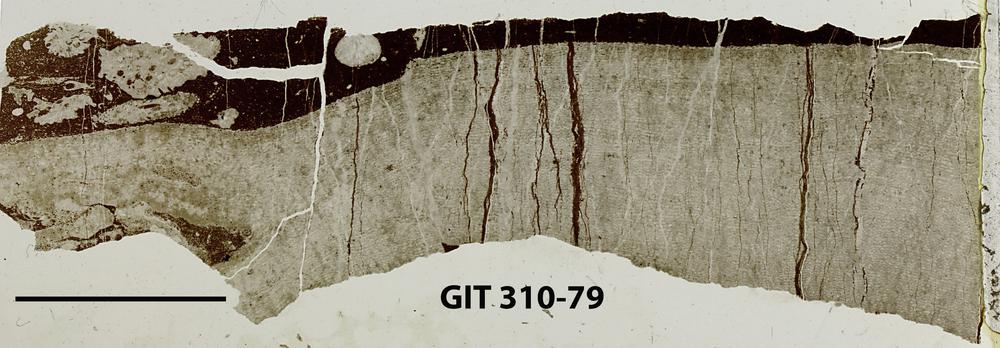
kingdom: Animalia
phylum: Porifera
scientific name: Porifera
